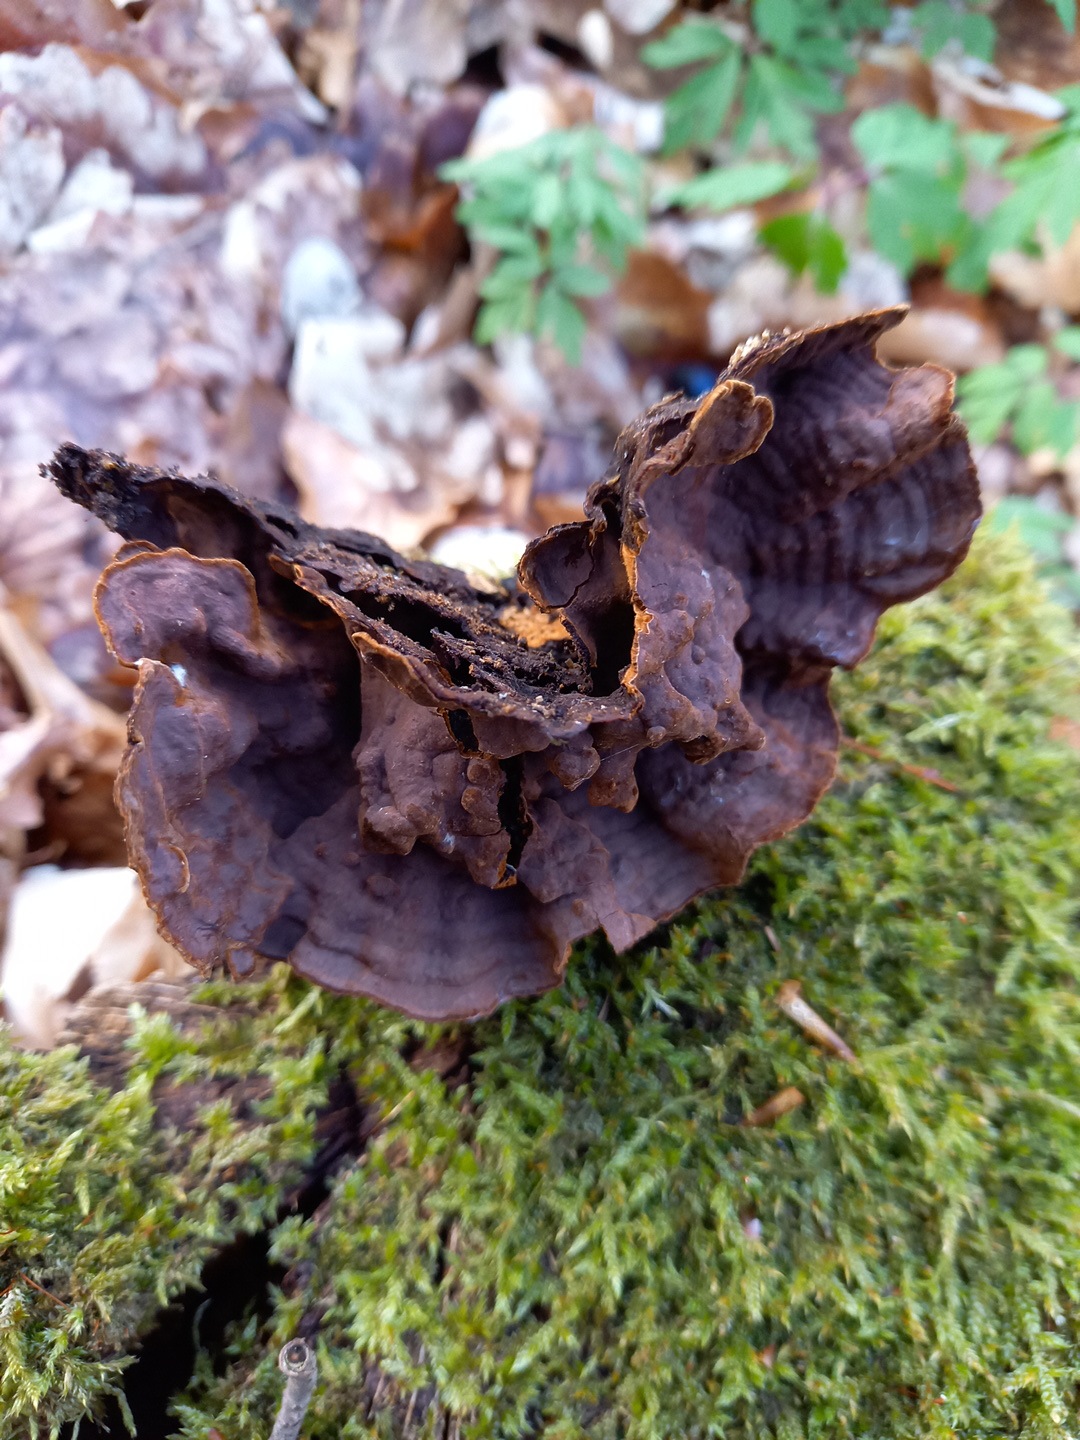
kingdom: Fungi
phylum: Basidiomycota
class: Agaricomycetes
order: Hymenochaetales
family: Hymenochaetaceae
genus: Hymenochaete
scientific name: Hymenochaete rubiginosa
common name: stiv ruslædersvamp
